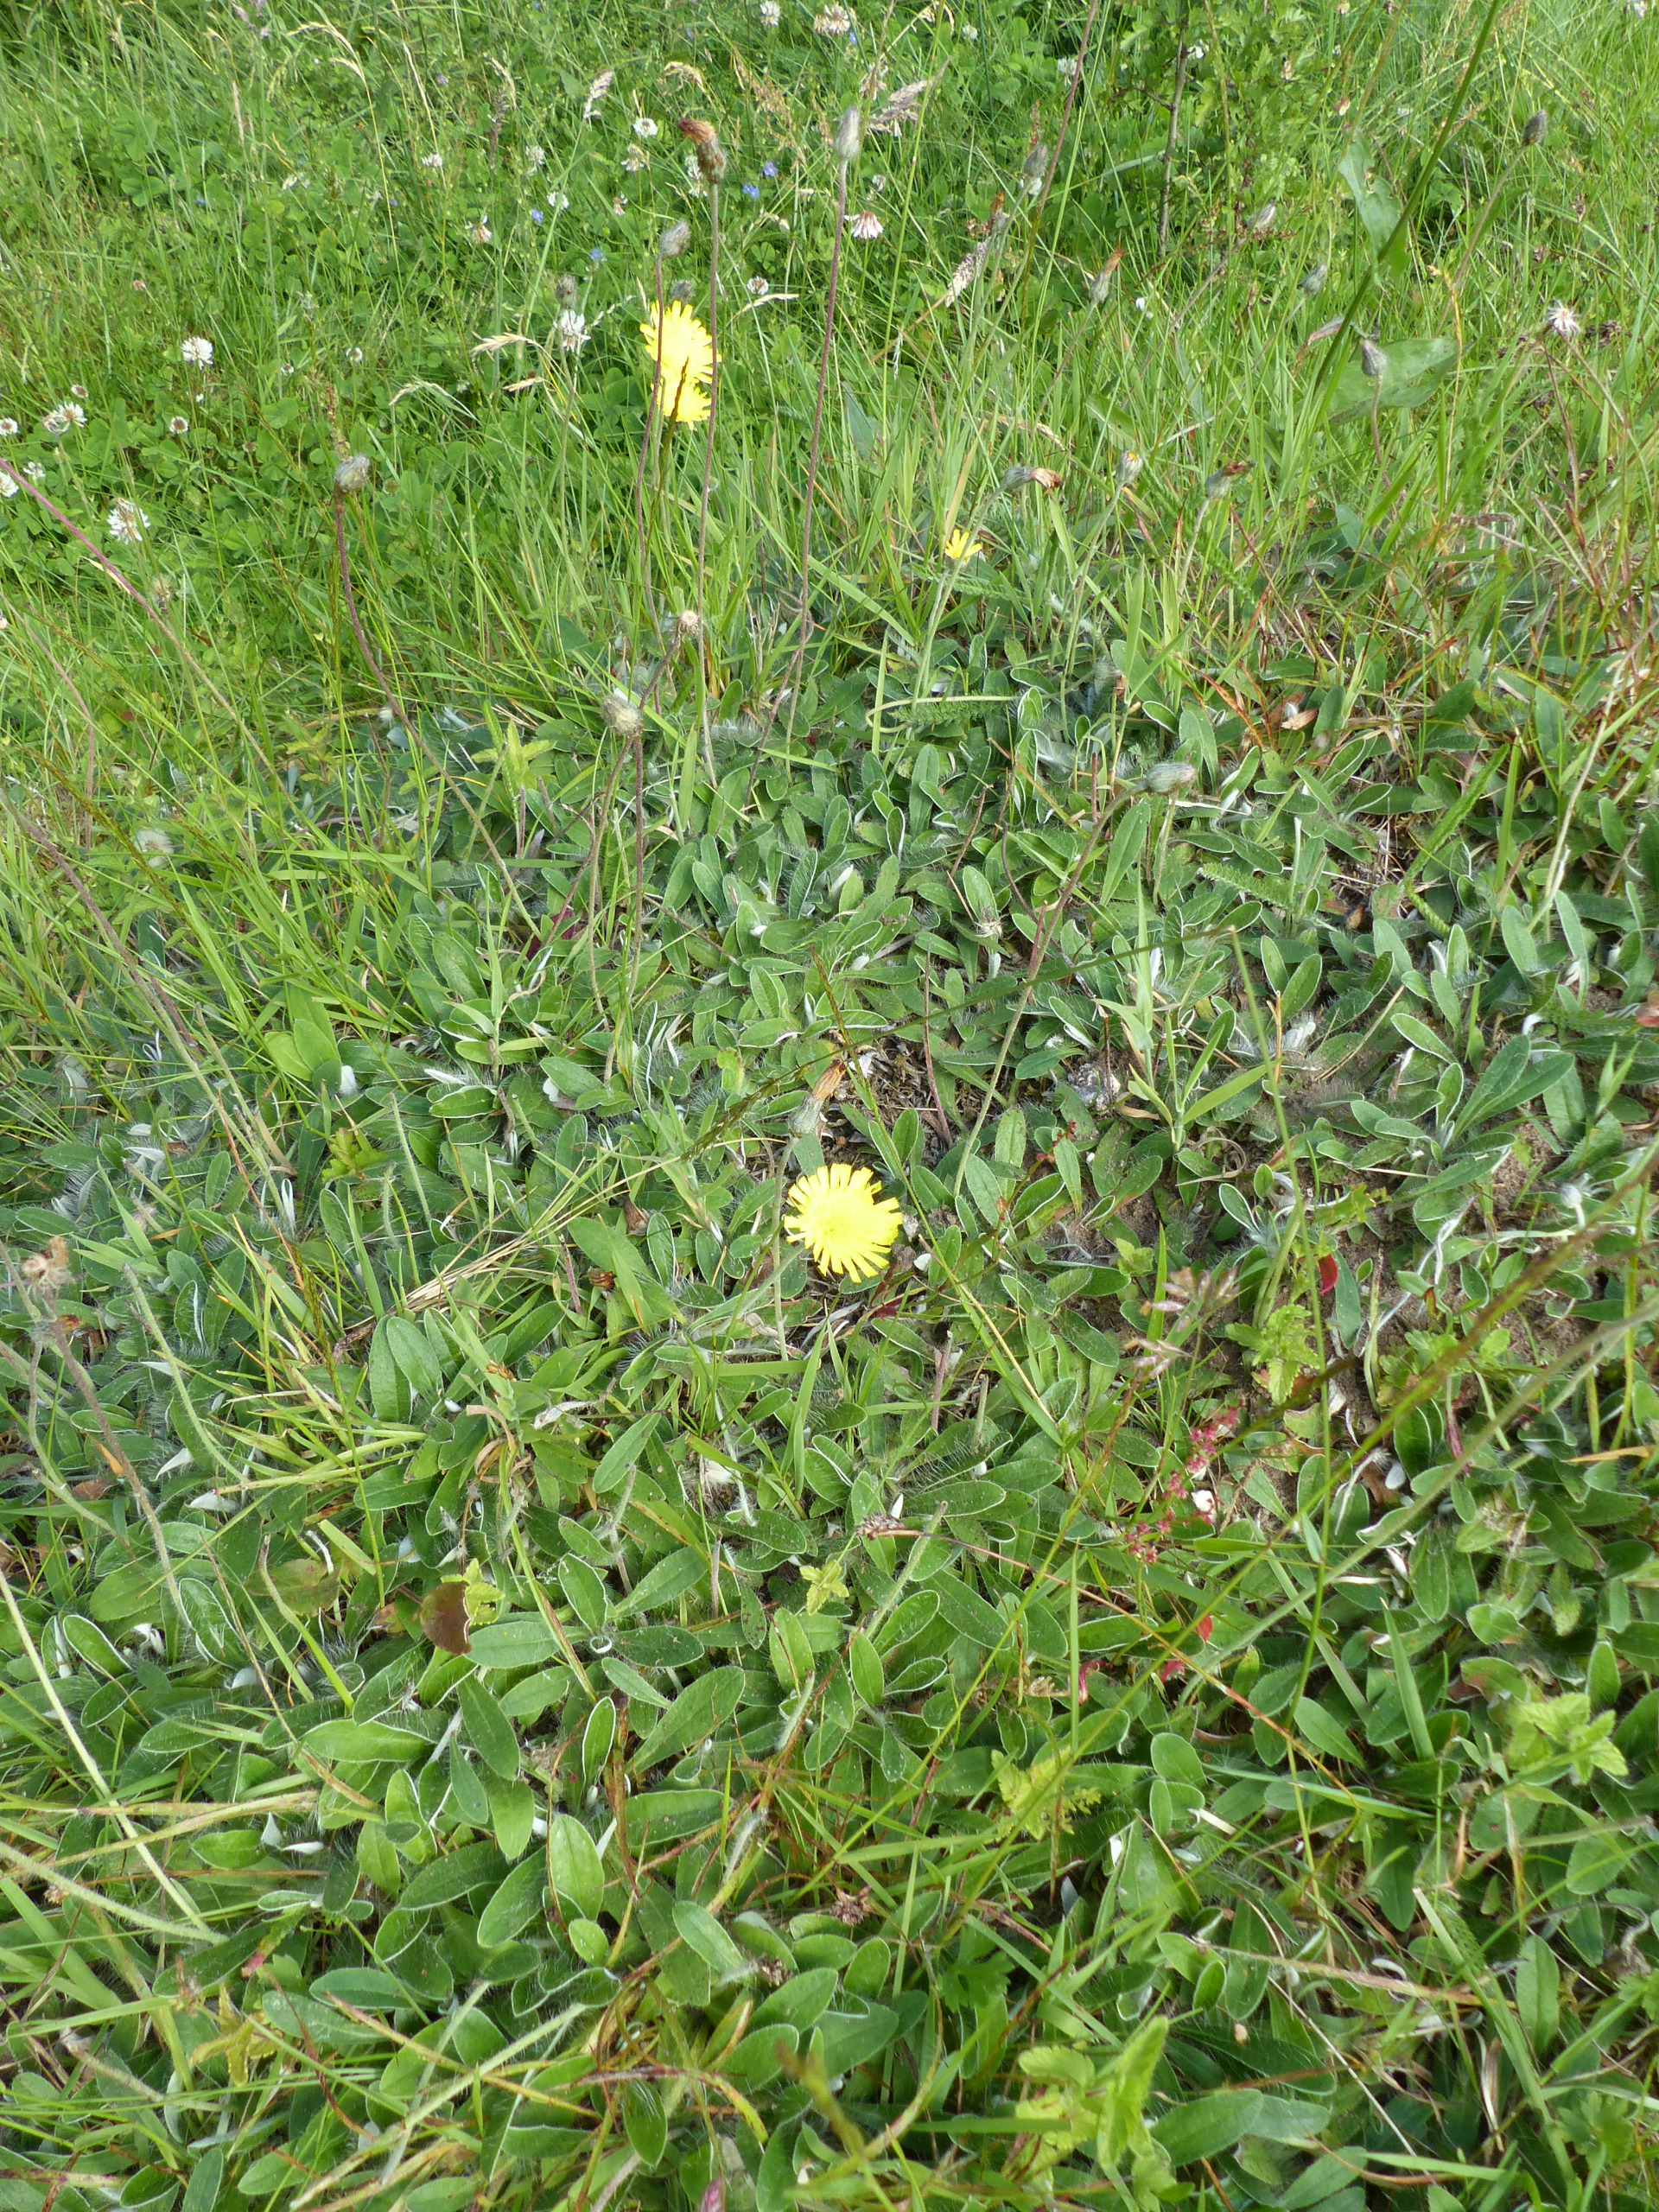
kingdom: Plantae
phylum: Tracheophyta
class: Magnoliopsida
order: Asterales
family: Asteraceae
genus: Pilosella
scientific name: Pilosella officinarum
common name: Håret høgeurt
